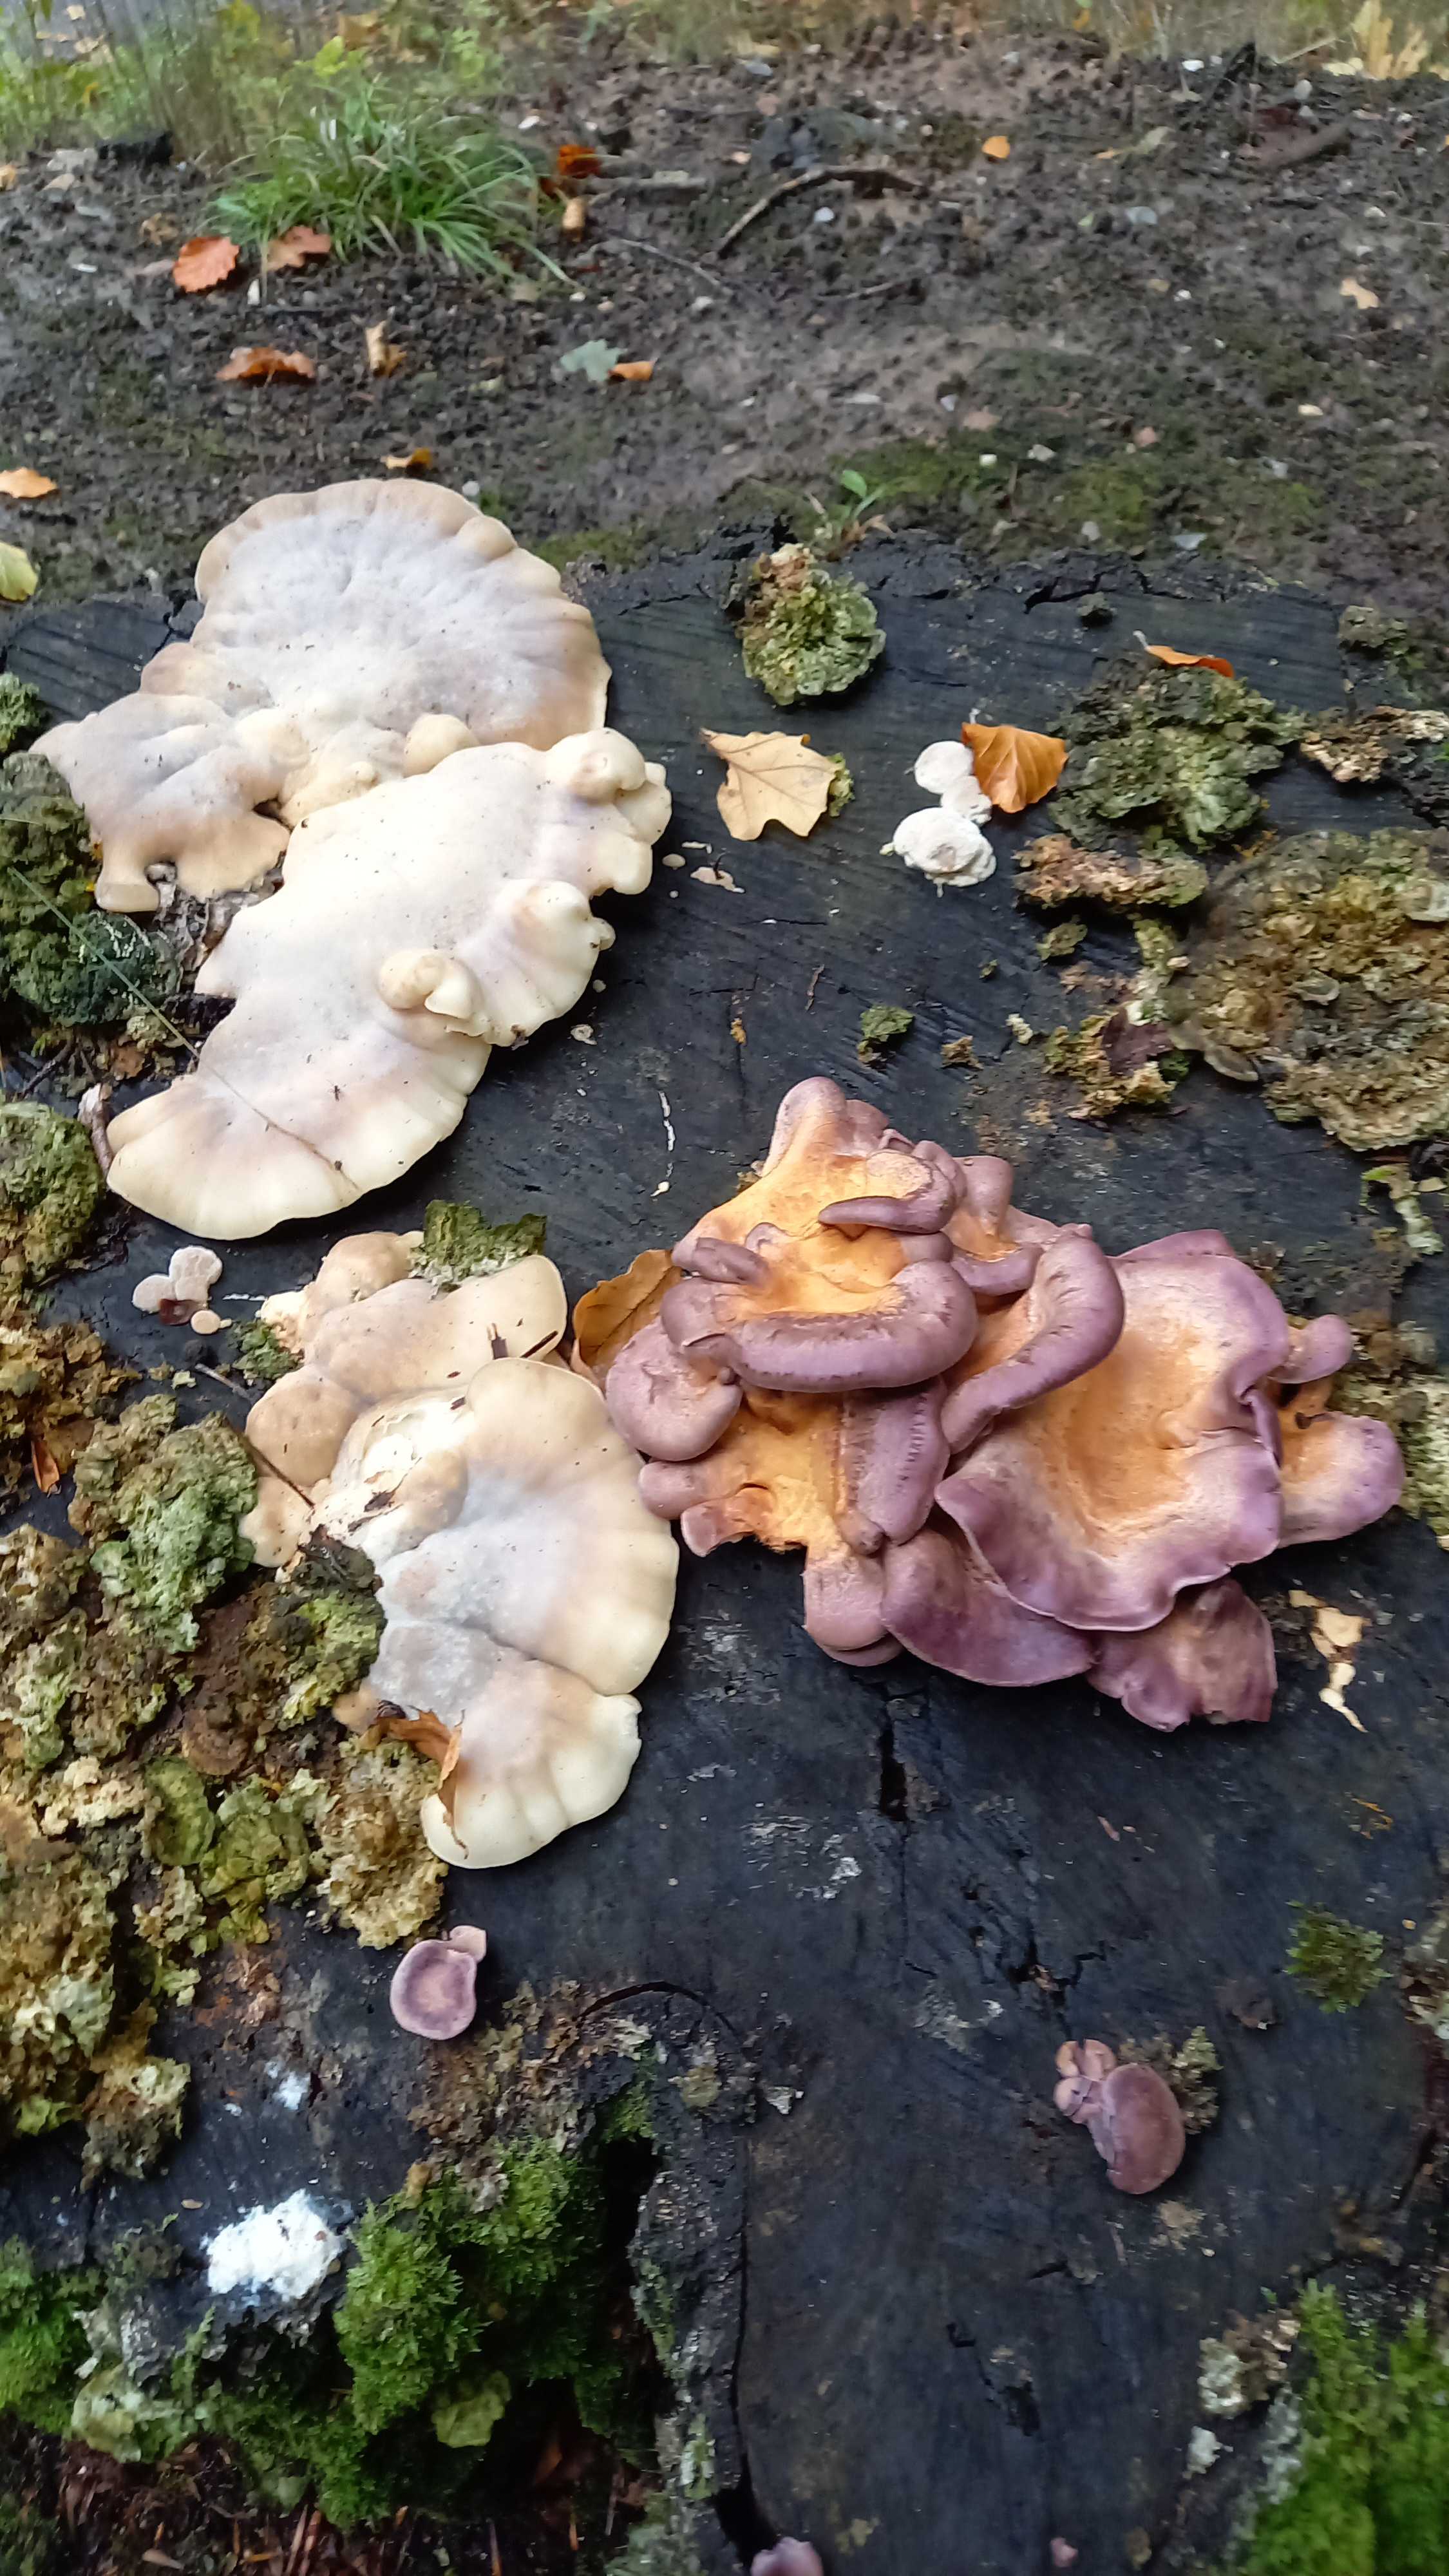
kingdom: Fungi
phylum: Basidiomycota
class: Agaricomycetes
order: Polyporales
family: Panaceae
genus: Panus
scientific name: Panus conchatus
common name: filtstokket læderhat
